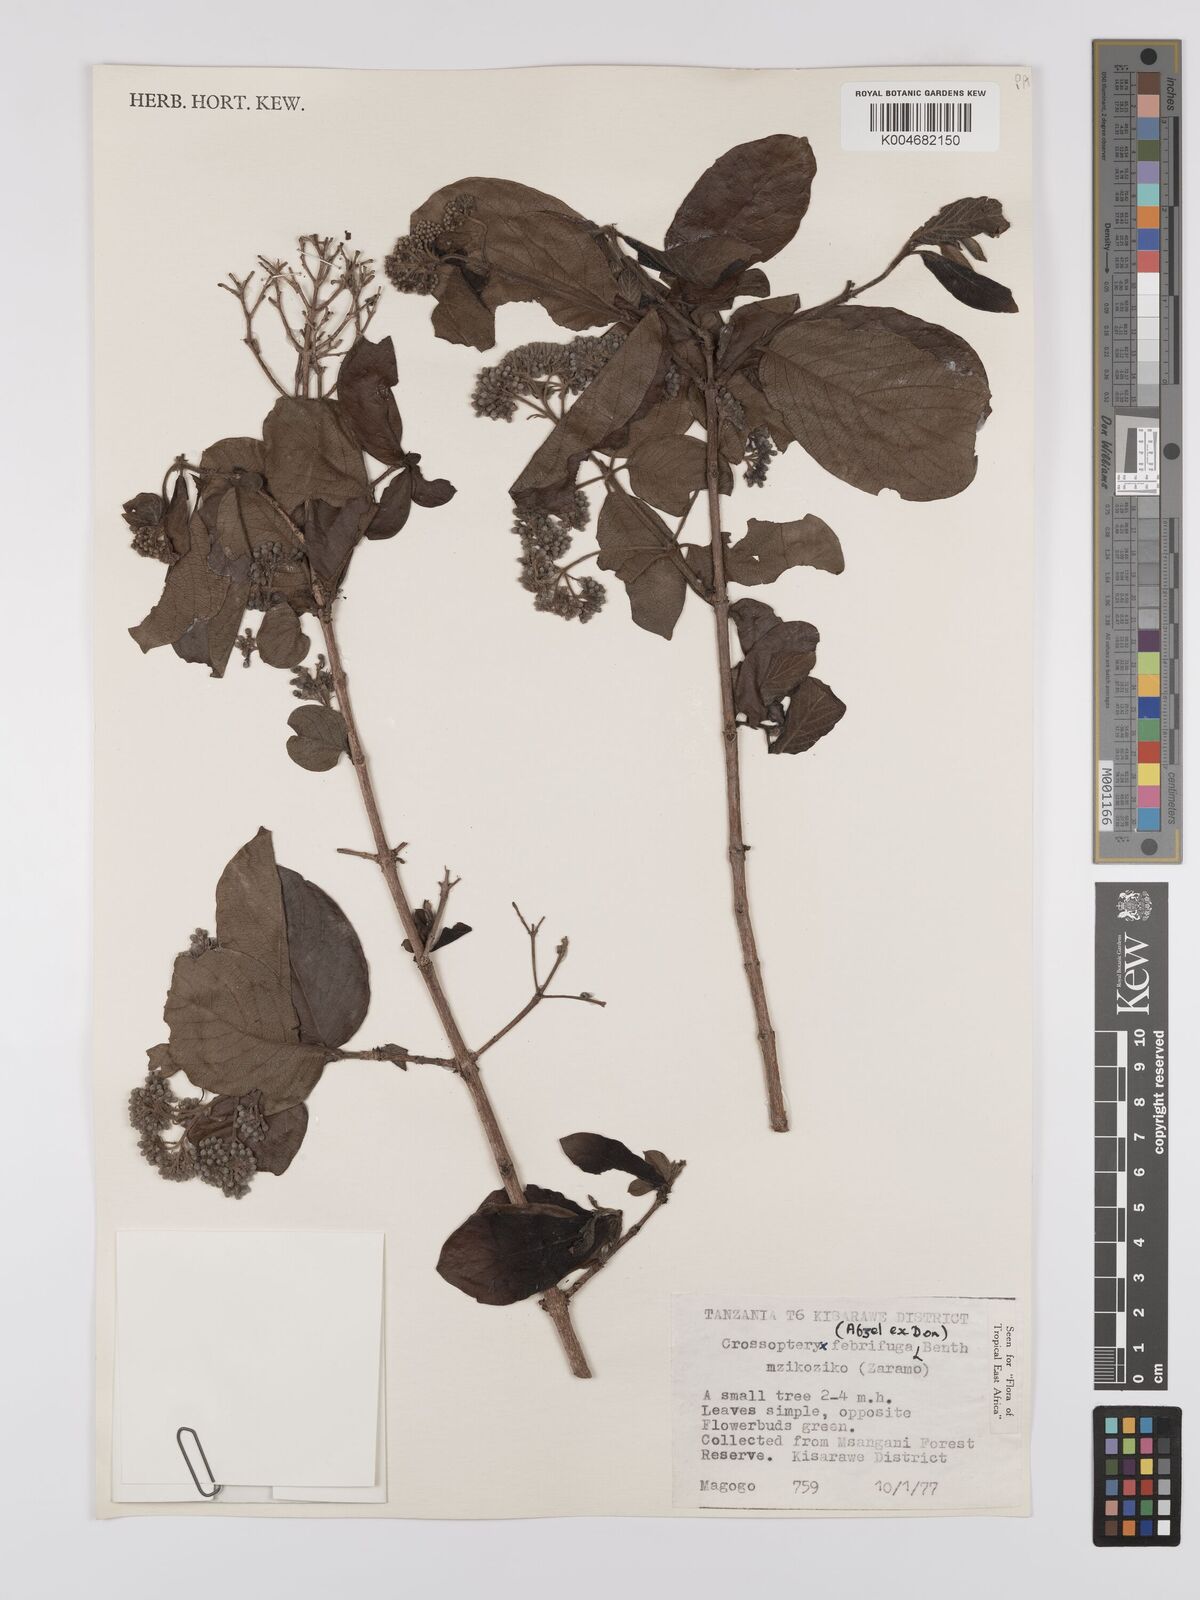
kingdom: Plantae
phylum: Tracheophyta
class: Magnoliopsida
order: Gentianales
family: Rubiaceae
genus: Crossopteryx
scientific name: Crossopteryx febrifuga
